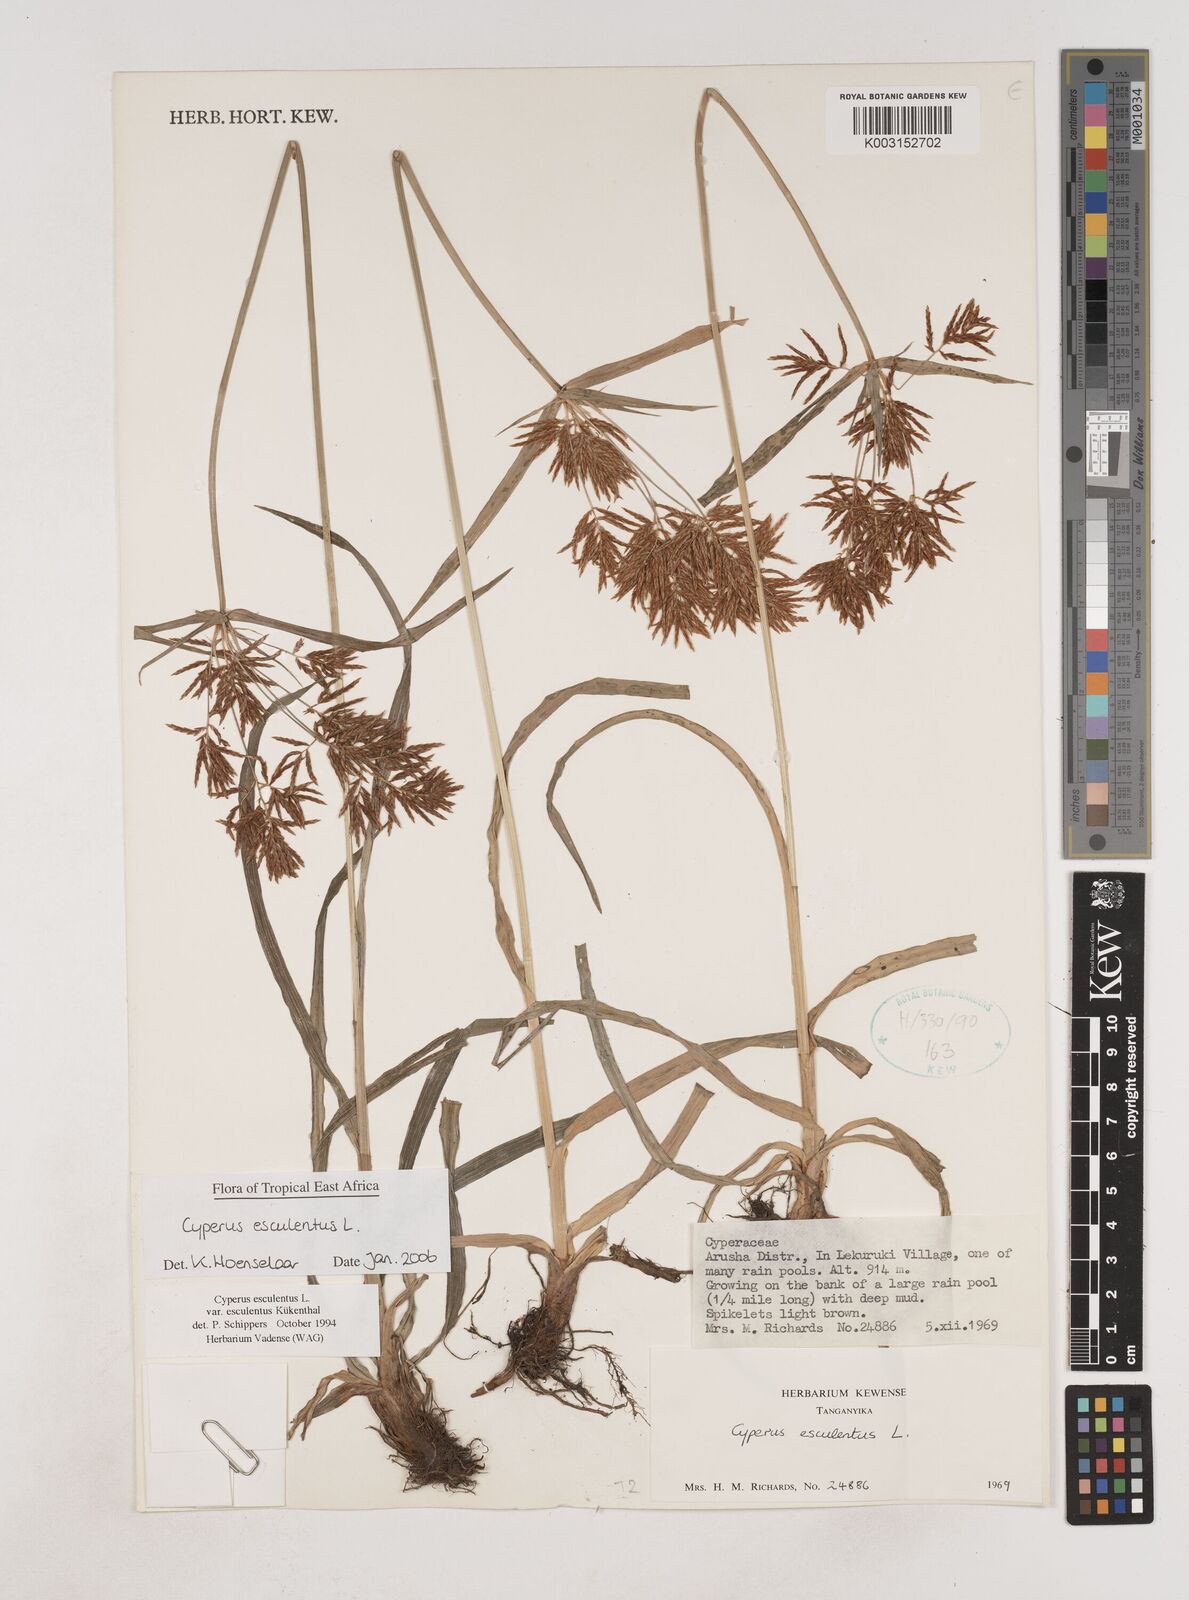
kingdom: Plantae
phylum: Tracheophyta
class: Liliopsida
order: Poales
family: Cyperaceae
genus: Cyperus
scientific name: Cyperus esculentus
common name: Yellow nutsedge
